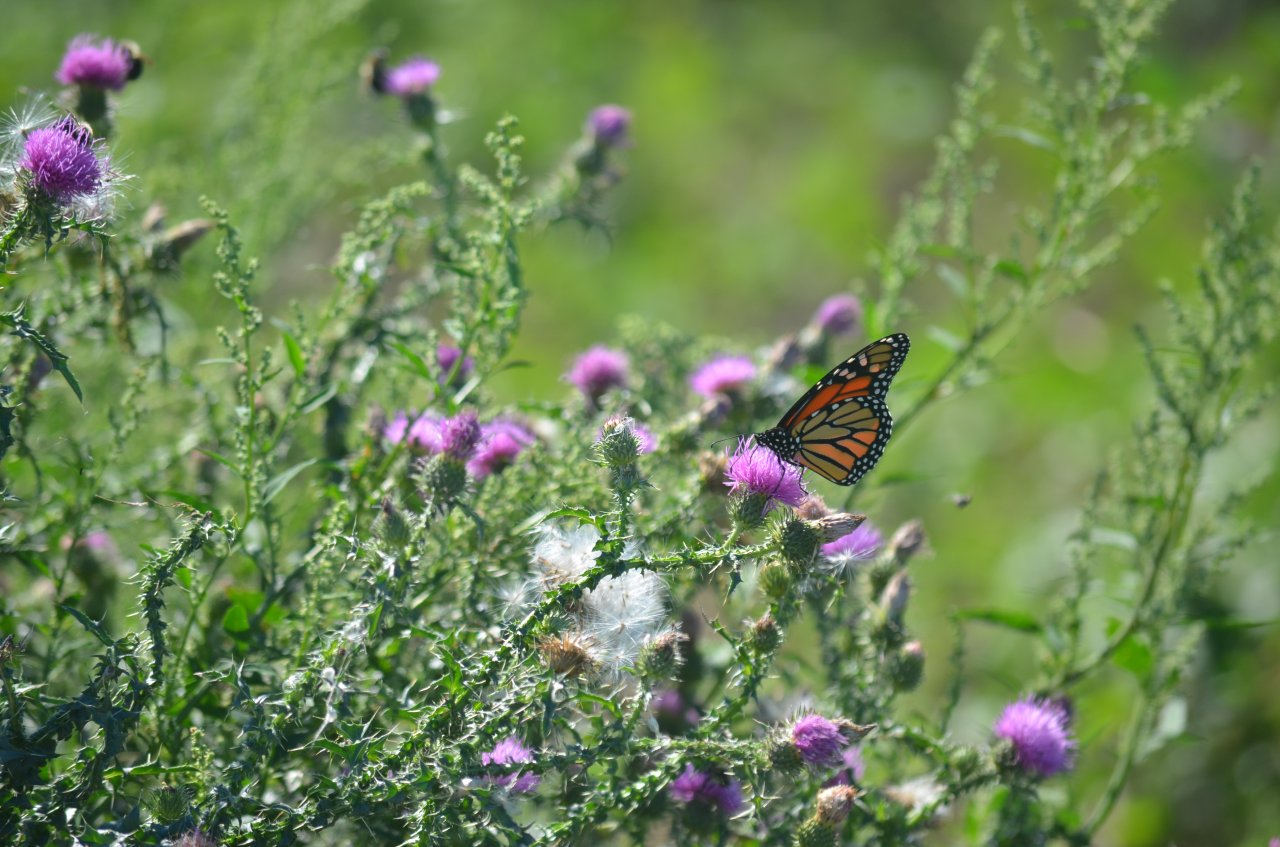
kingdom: Animalia
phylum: Arthropoda
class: Insecta
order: Lepidoptera
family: Nymphalidae
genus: Danaus
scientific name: Danaus plexippus
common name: Monarch
